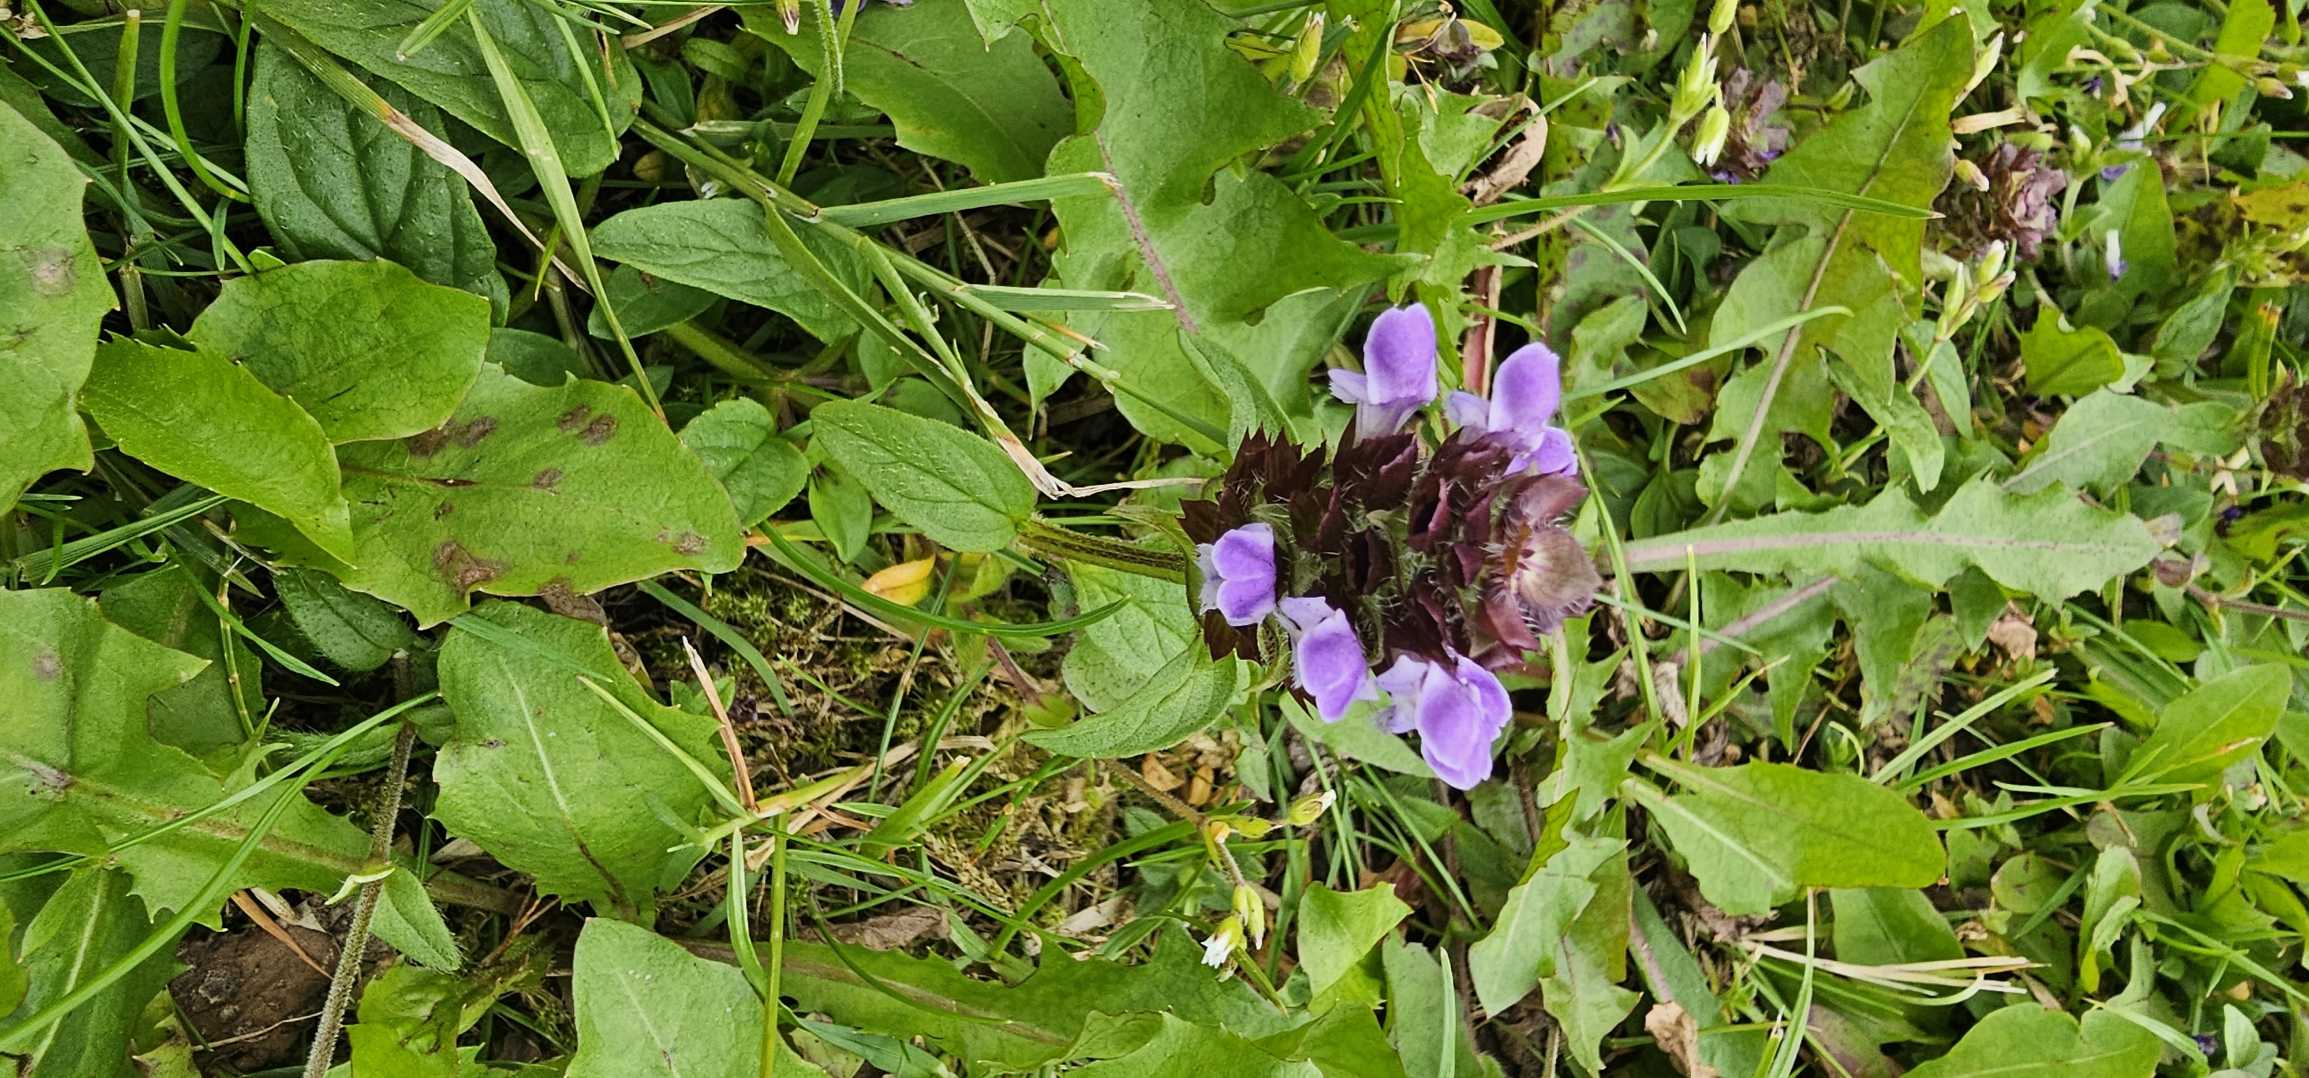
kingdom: Plantae
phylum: Tracheophyta
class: Magnoliopsida
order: Lamiales
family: Lamiaceae
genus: Prunella
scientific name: Prunella vulgaris
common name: Almindelig brunelle
